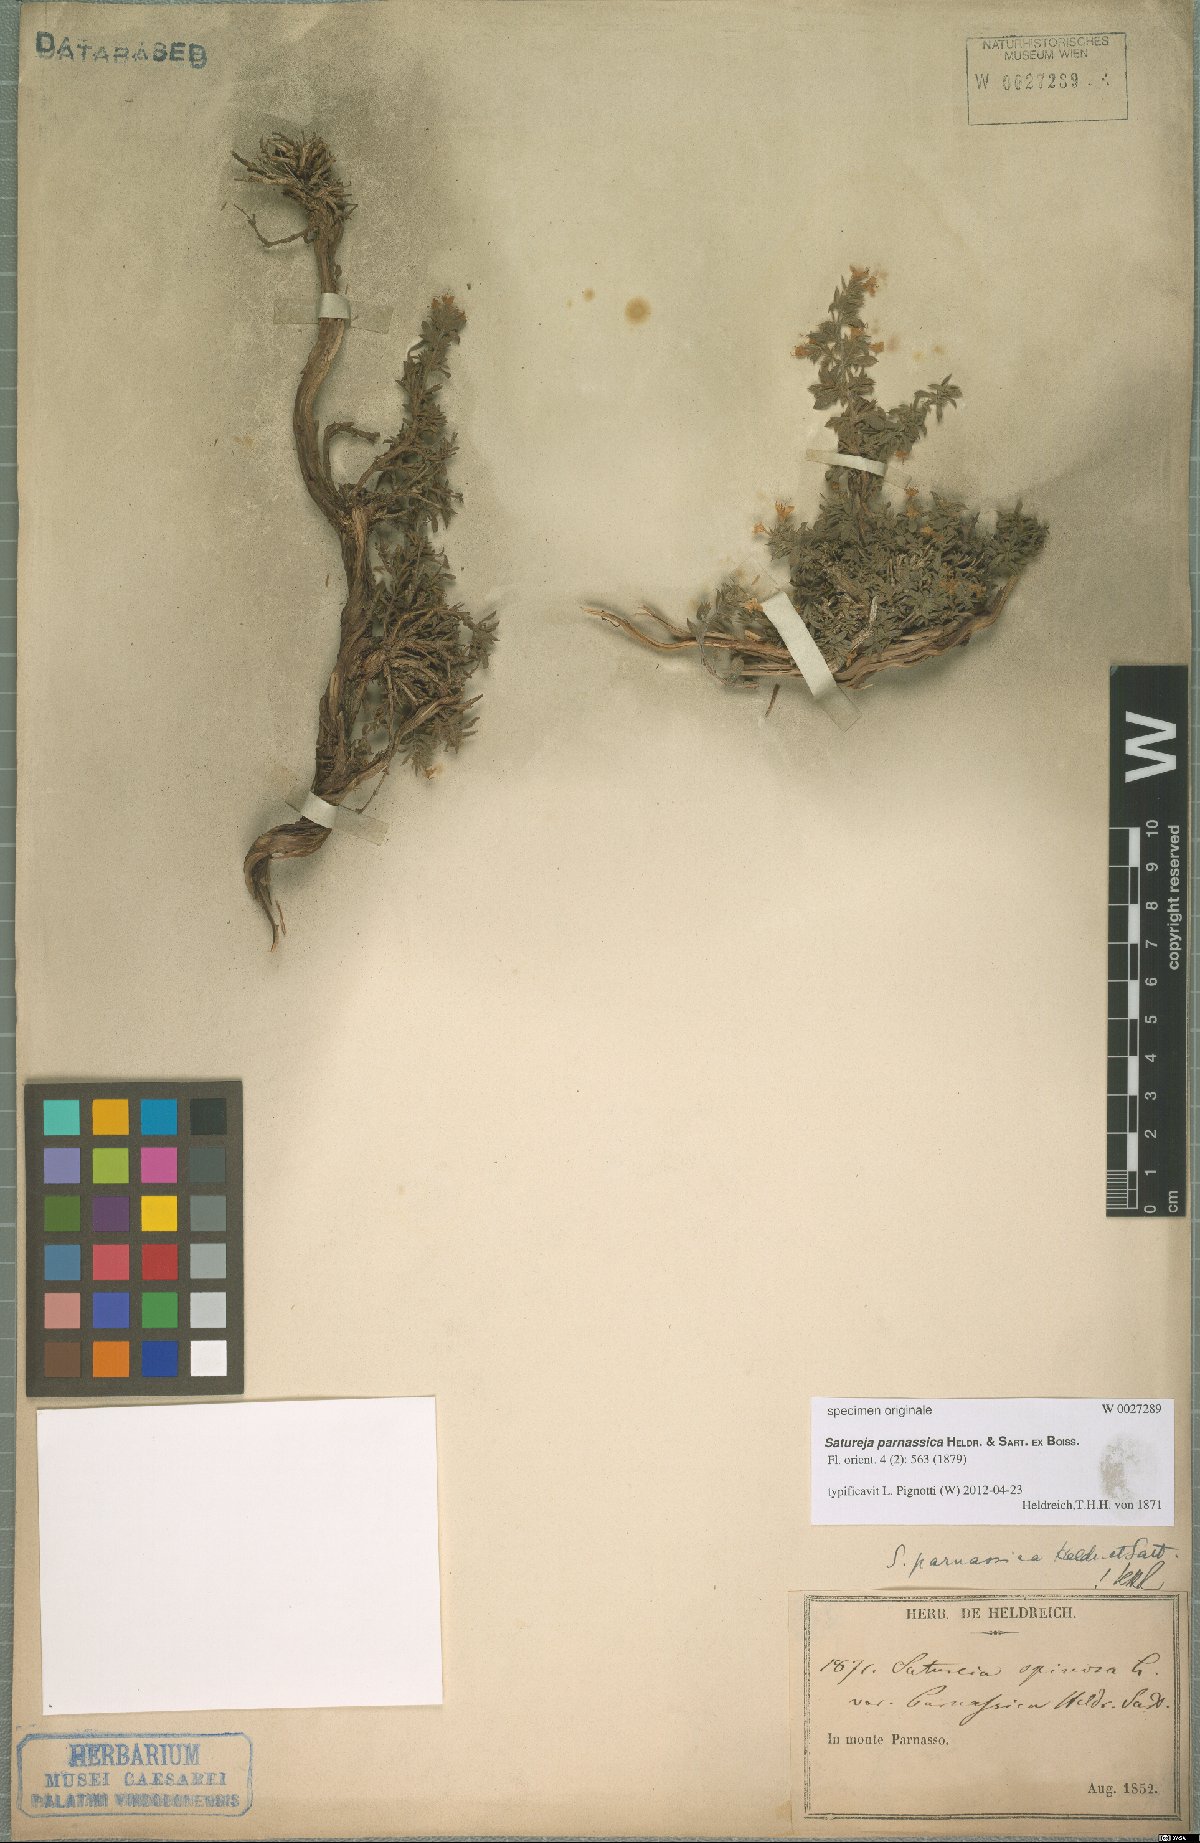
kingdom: Plantae
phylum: Tracheophyta
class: Magnoliopsida
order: Lamiales
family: Lamiaceae
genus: Satureja
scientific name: Satureja parnassica
